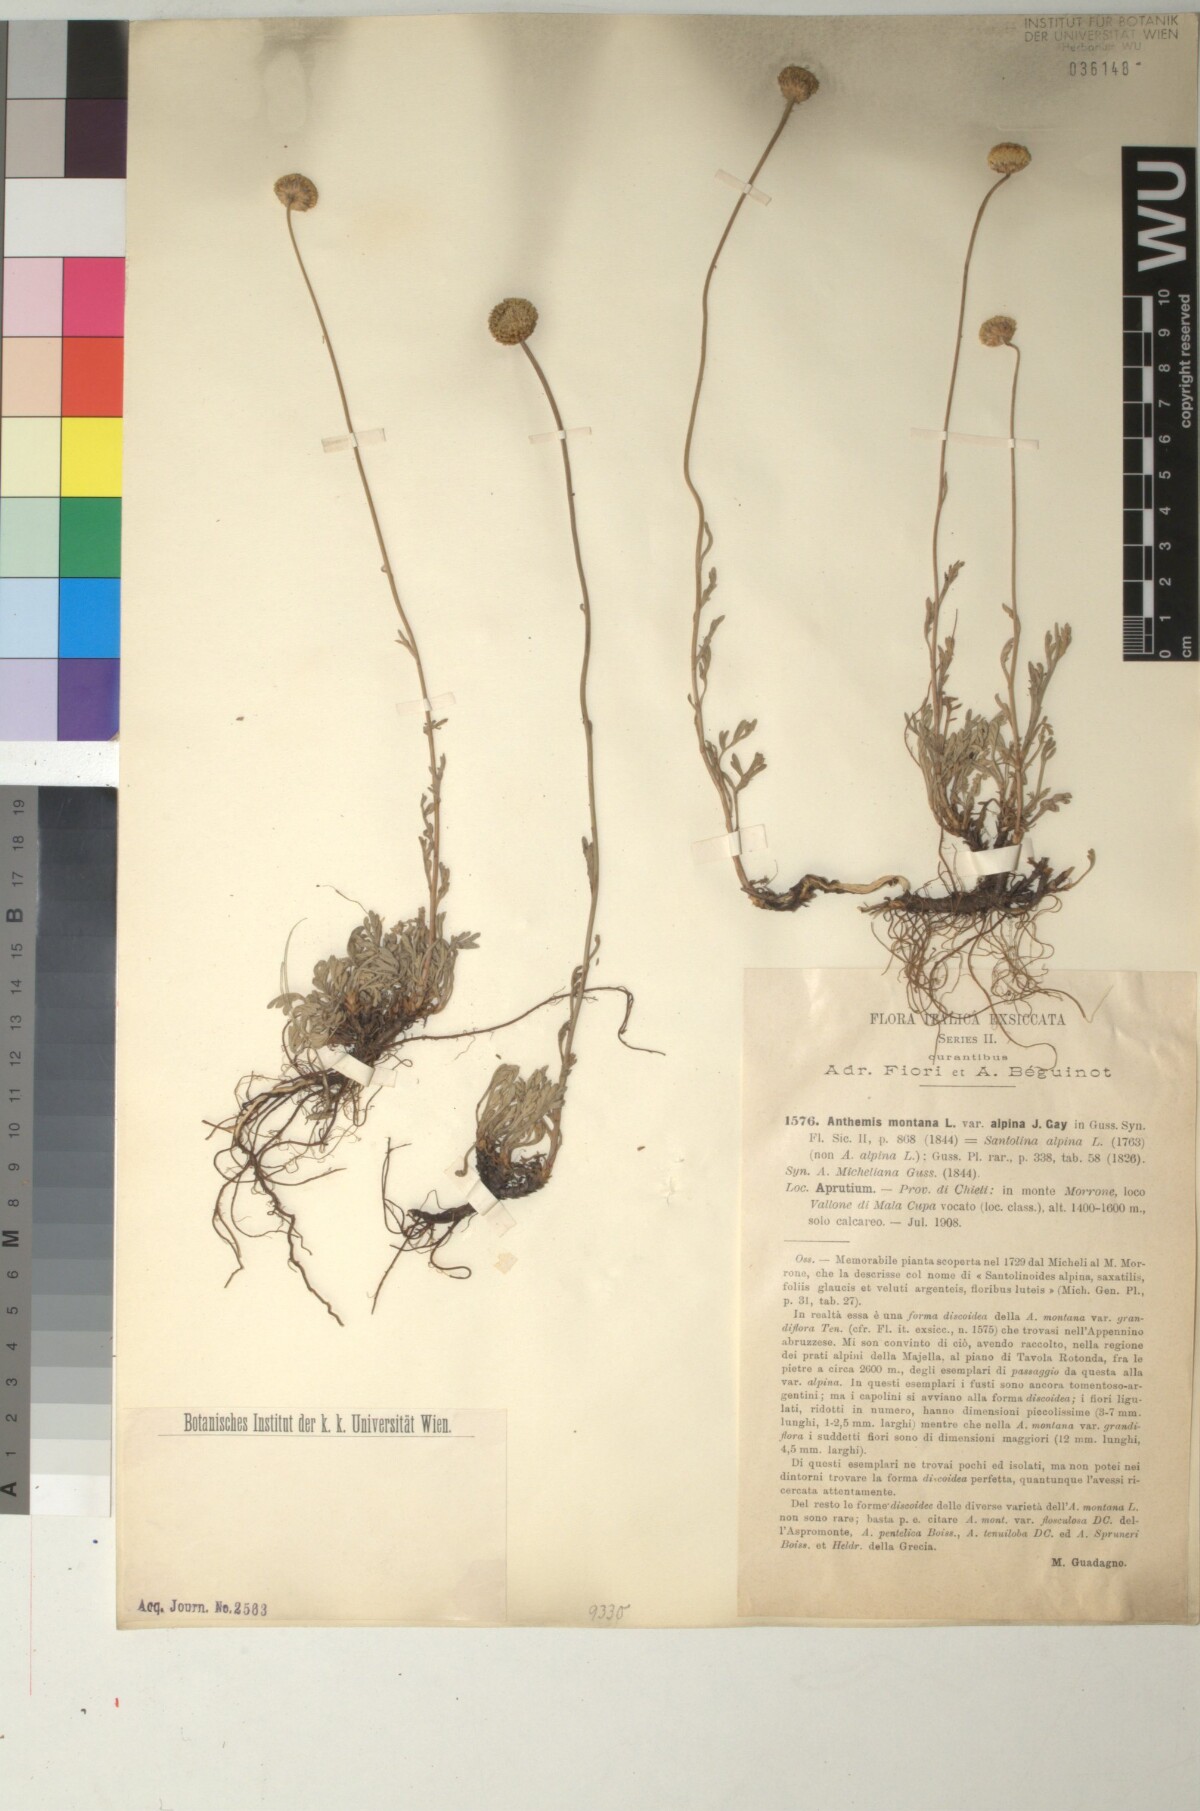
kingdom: Plantae
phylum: Tracheophyta
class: Magnoliopsida
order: Asterales
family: Asteraceae
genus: Anthemis
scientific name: Anthemis cretica
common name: Mountain dog-daisy
